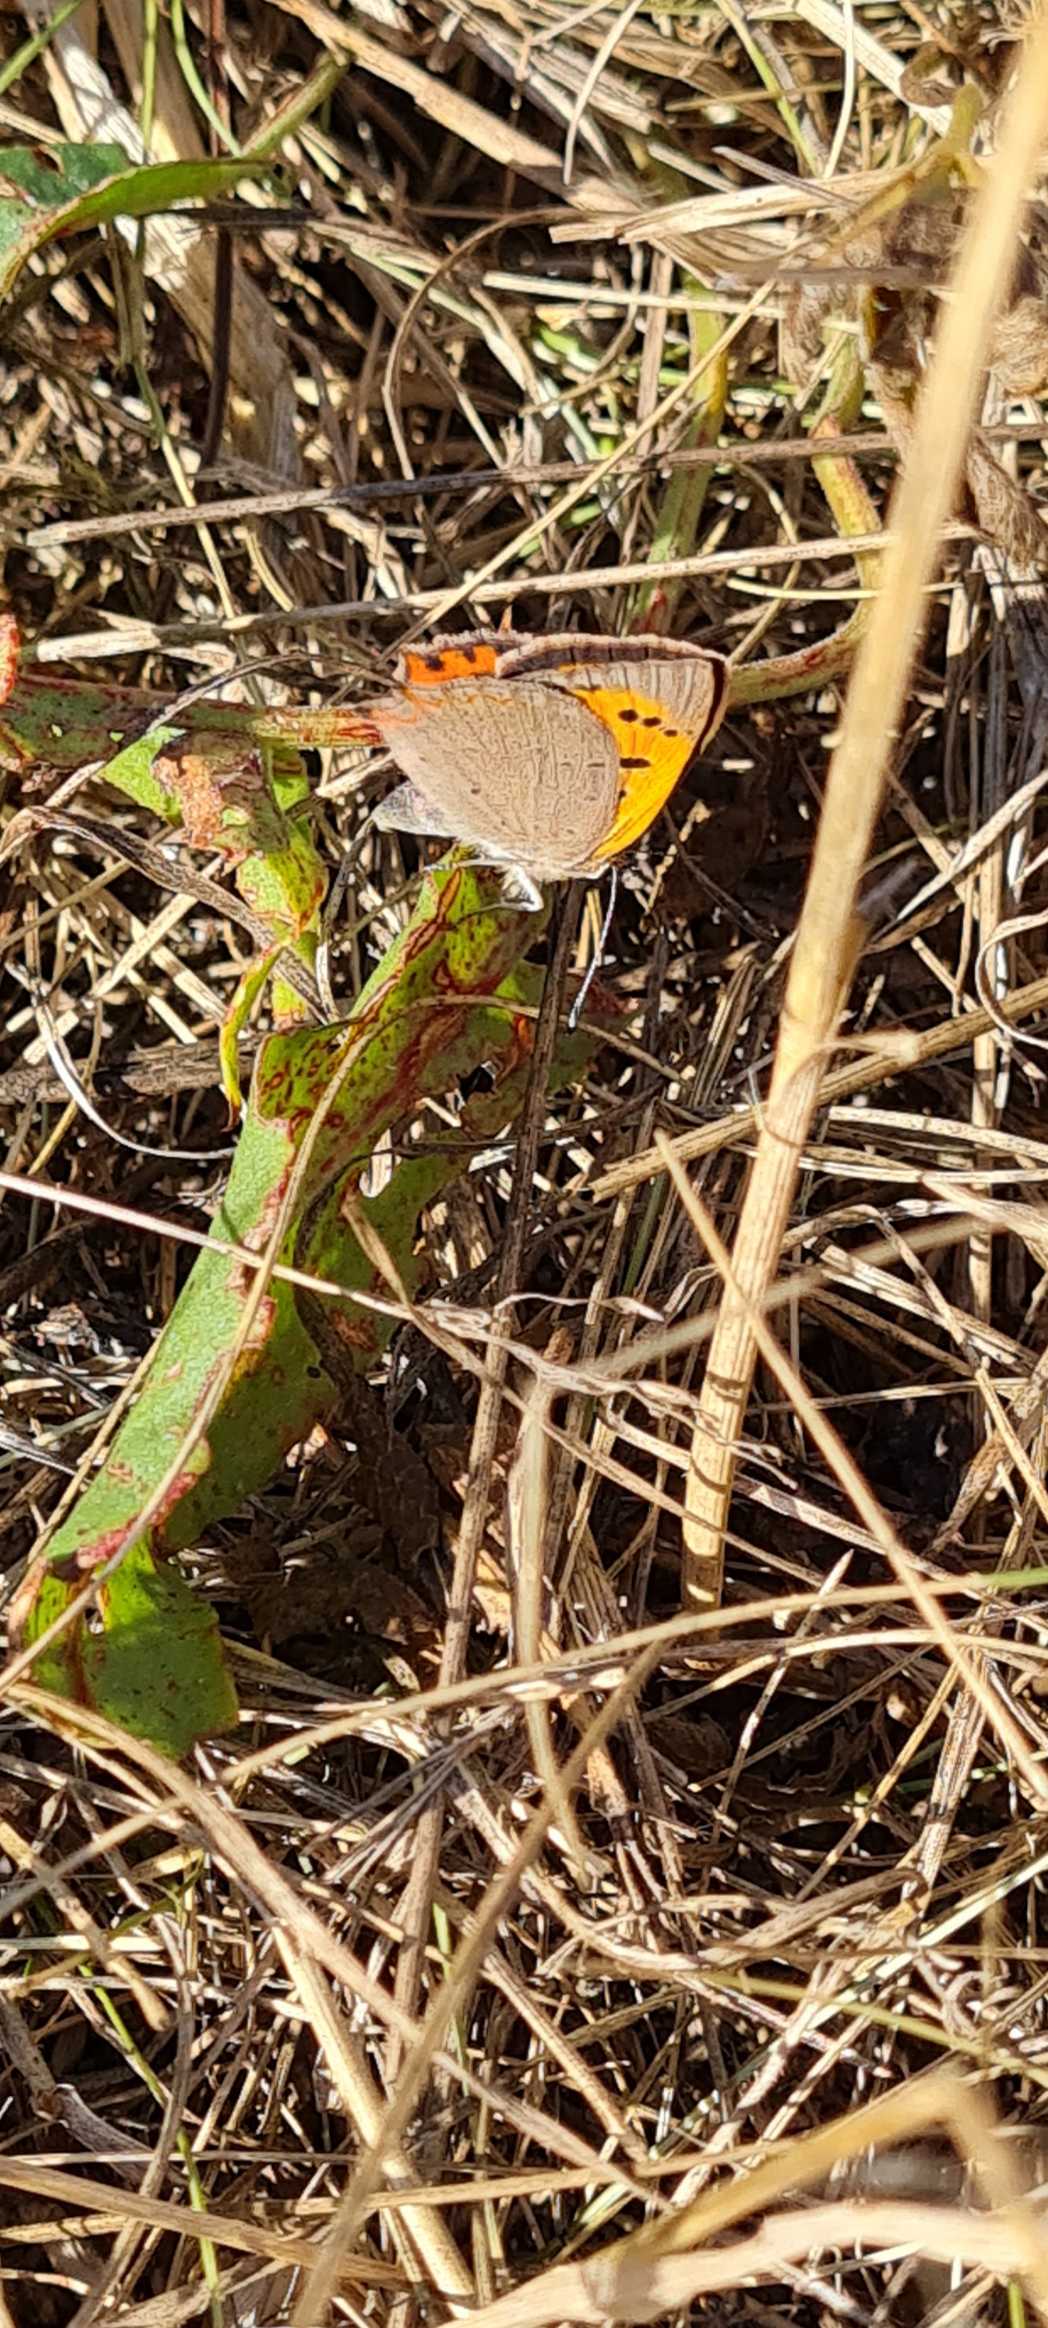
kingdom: Animalia
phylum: Arthropoda
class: Insecta
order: Lepidoptera
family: Lycaenidae
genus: Lycaena
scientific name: Lycaena phlaeas
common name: Lille ildfugl
